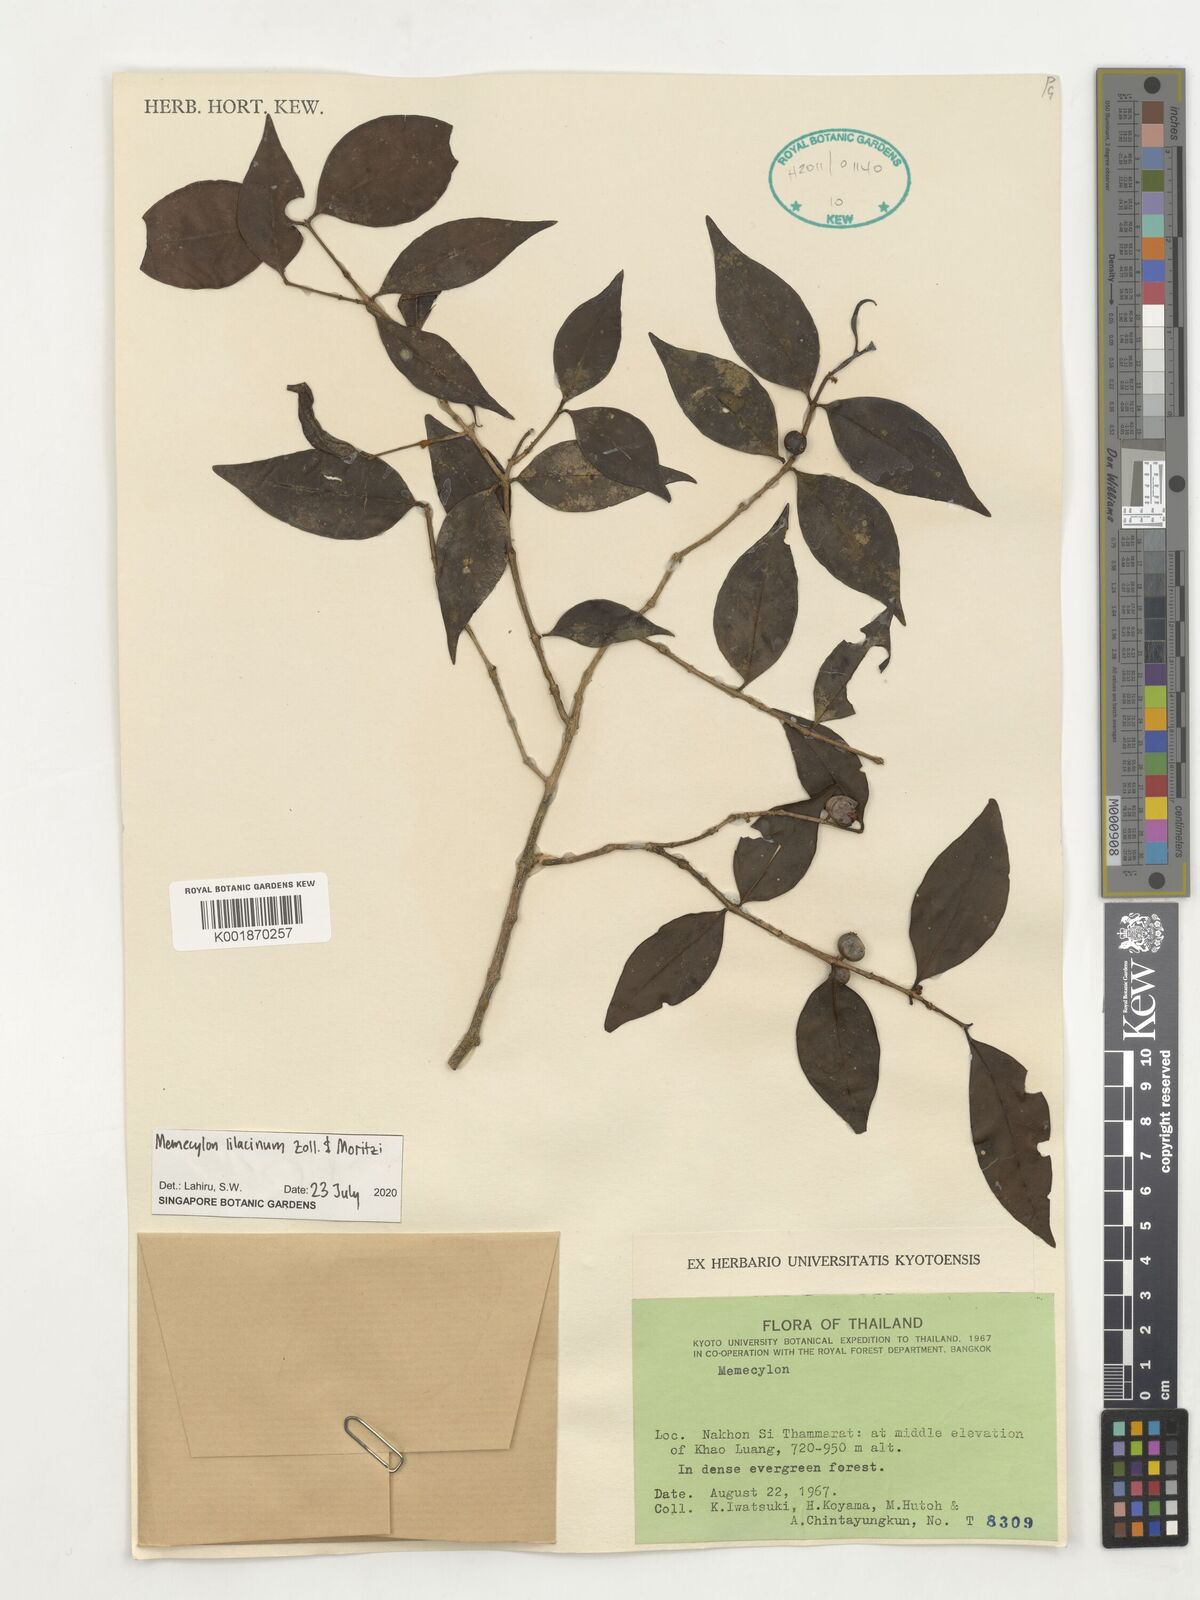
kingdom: Plantae
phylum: Tracheophyta
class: Magnoliopsida
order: Myrtales
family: Melastomataceae
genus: Memecylon
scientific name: Memecylon lilacinum
